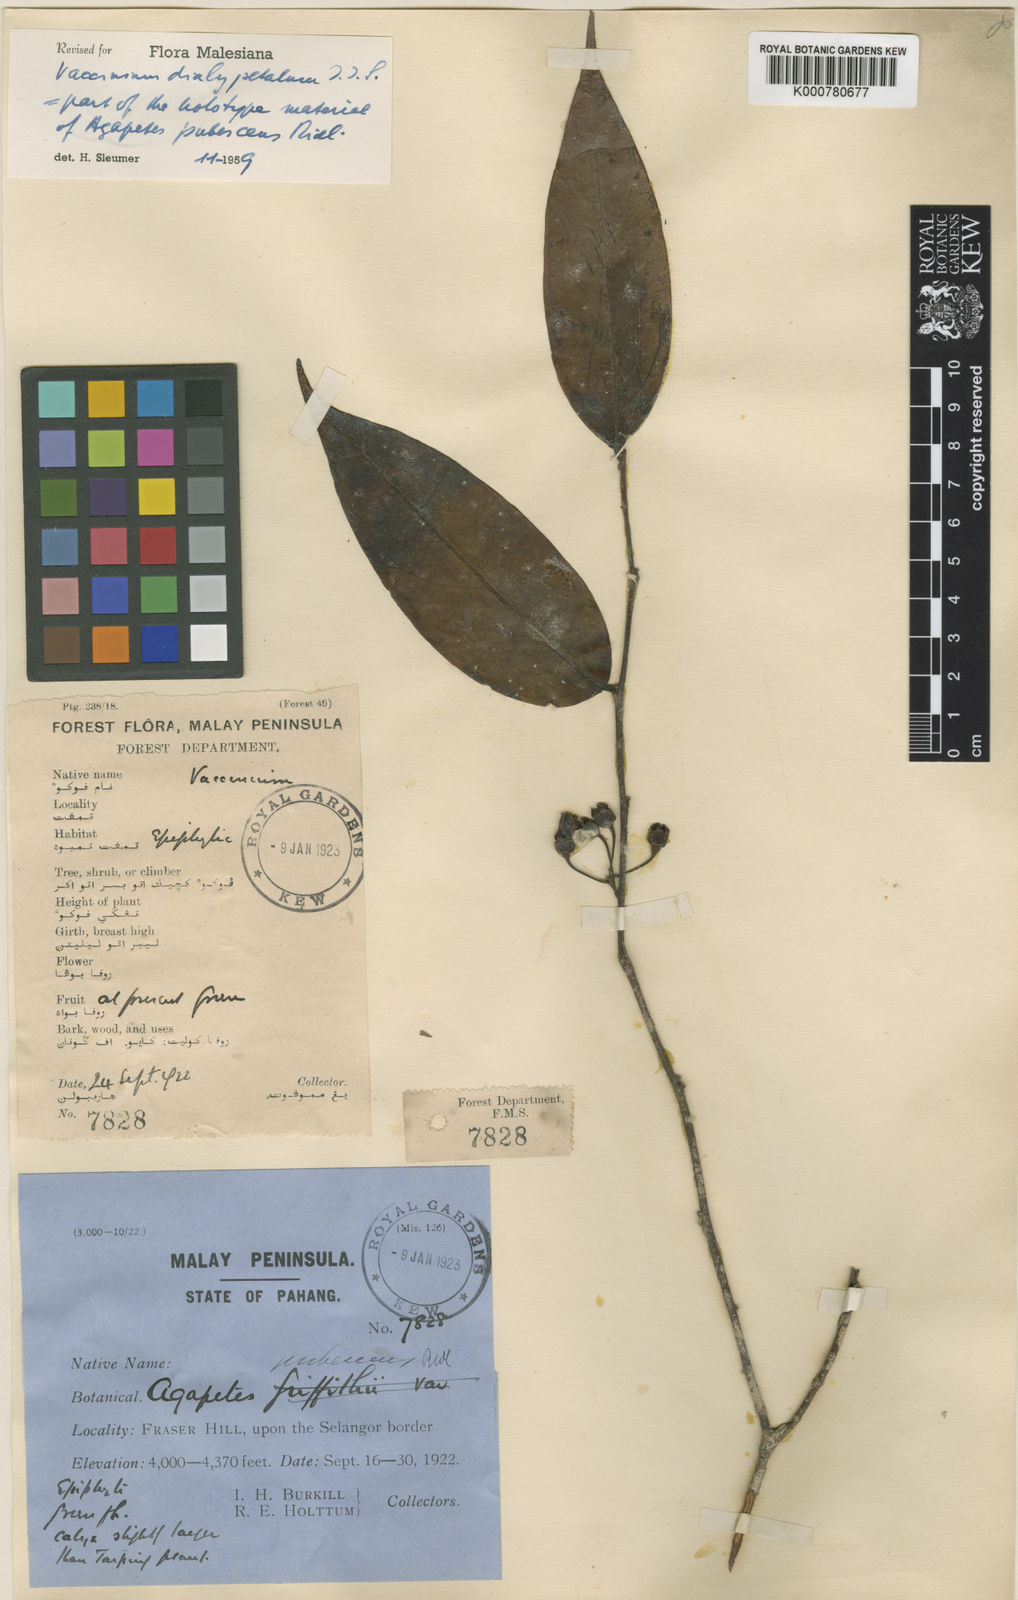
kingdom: Plantae
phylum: Tracheophyta
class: Magnoliopsida
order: Ericales
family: Ericaceae
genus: Vaccinium
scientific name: Vaccinium dialypetalum
